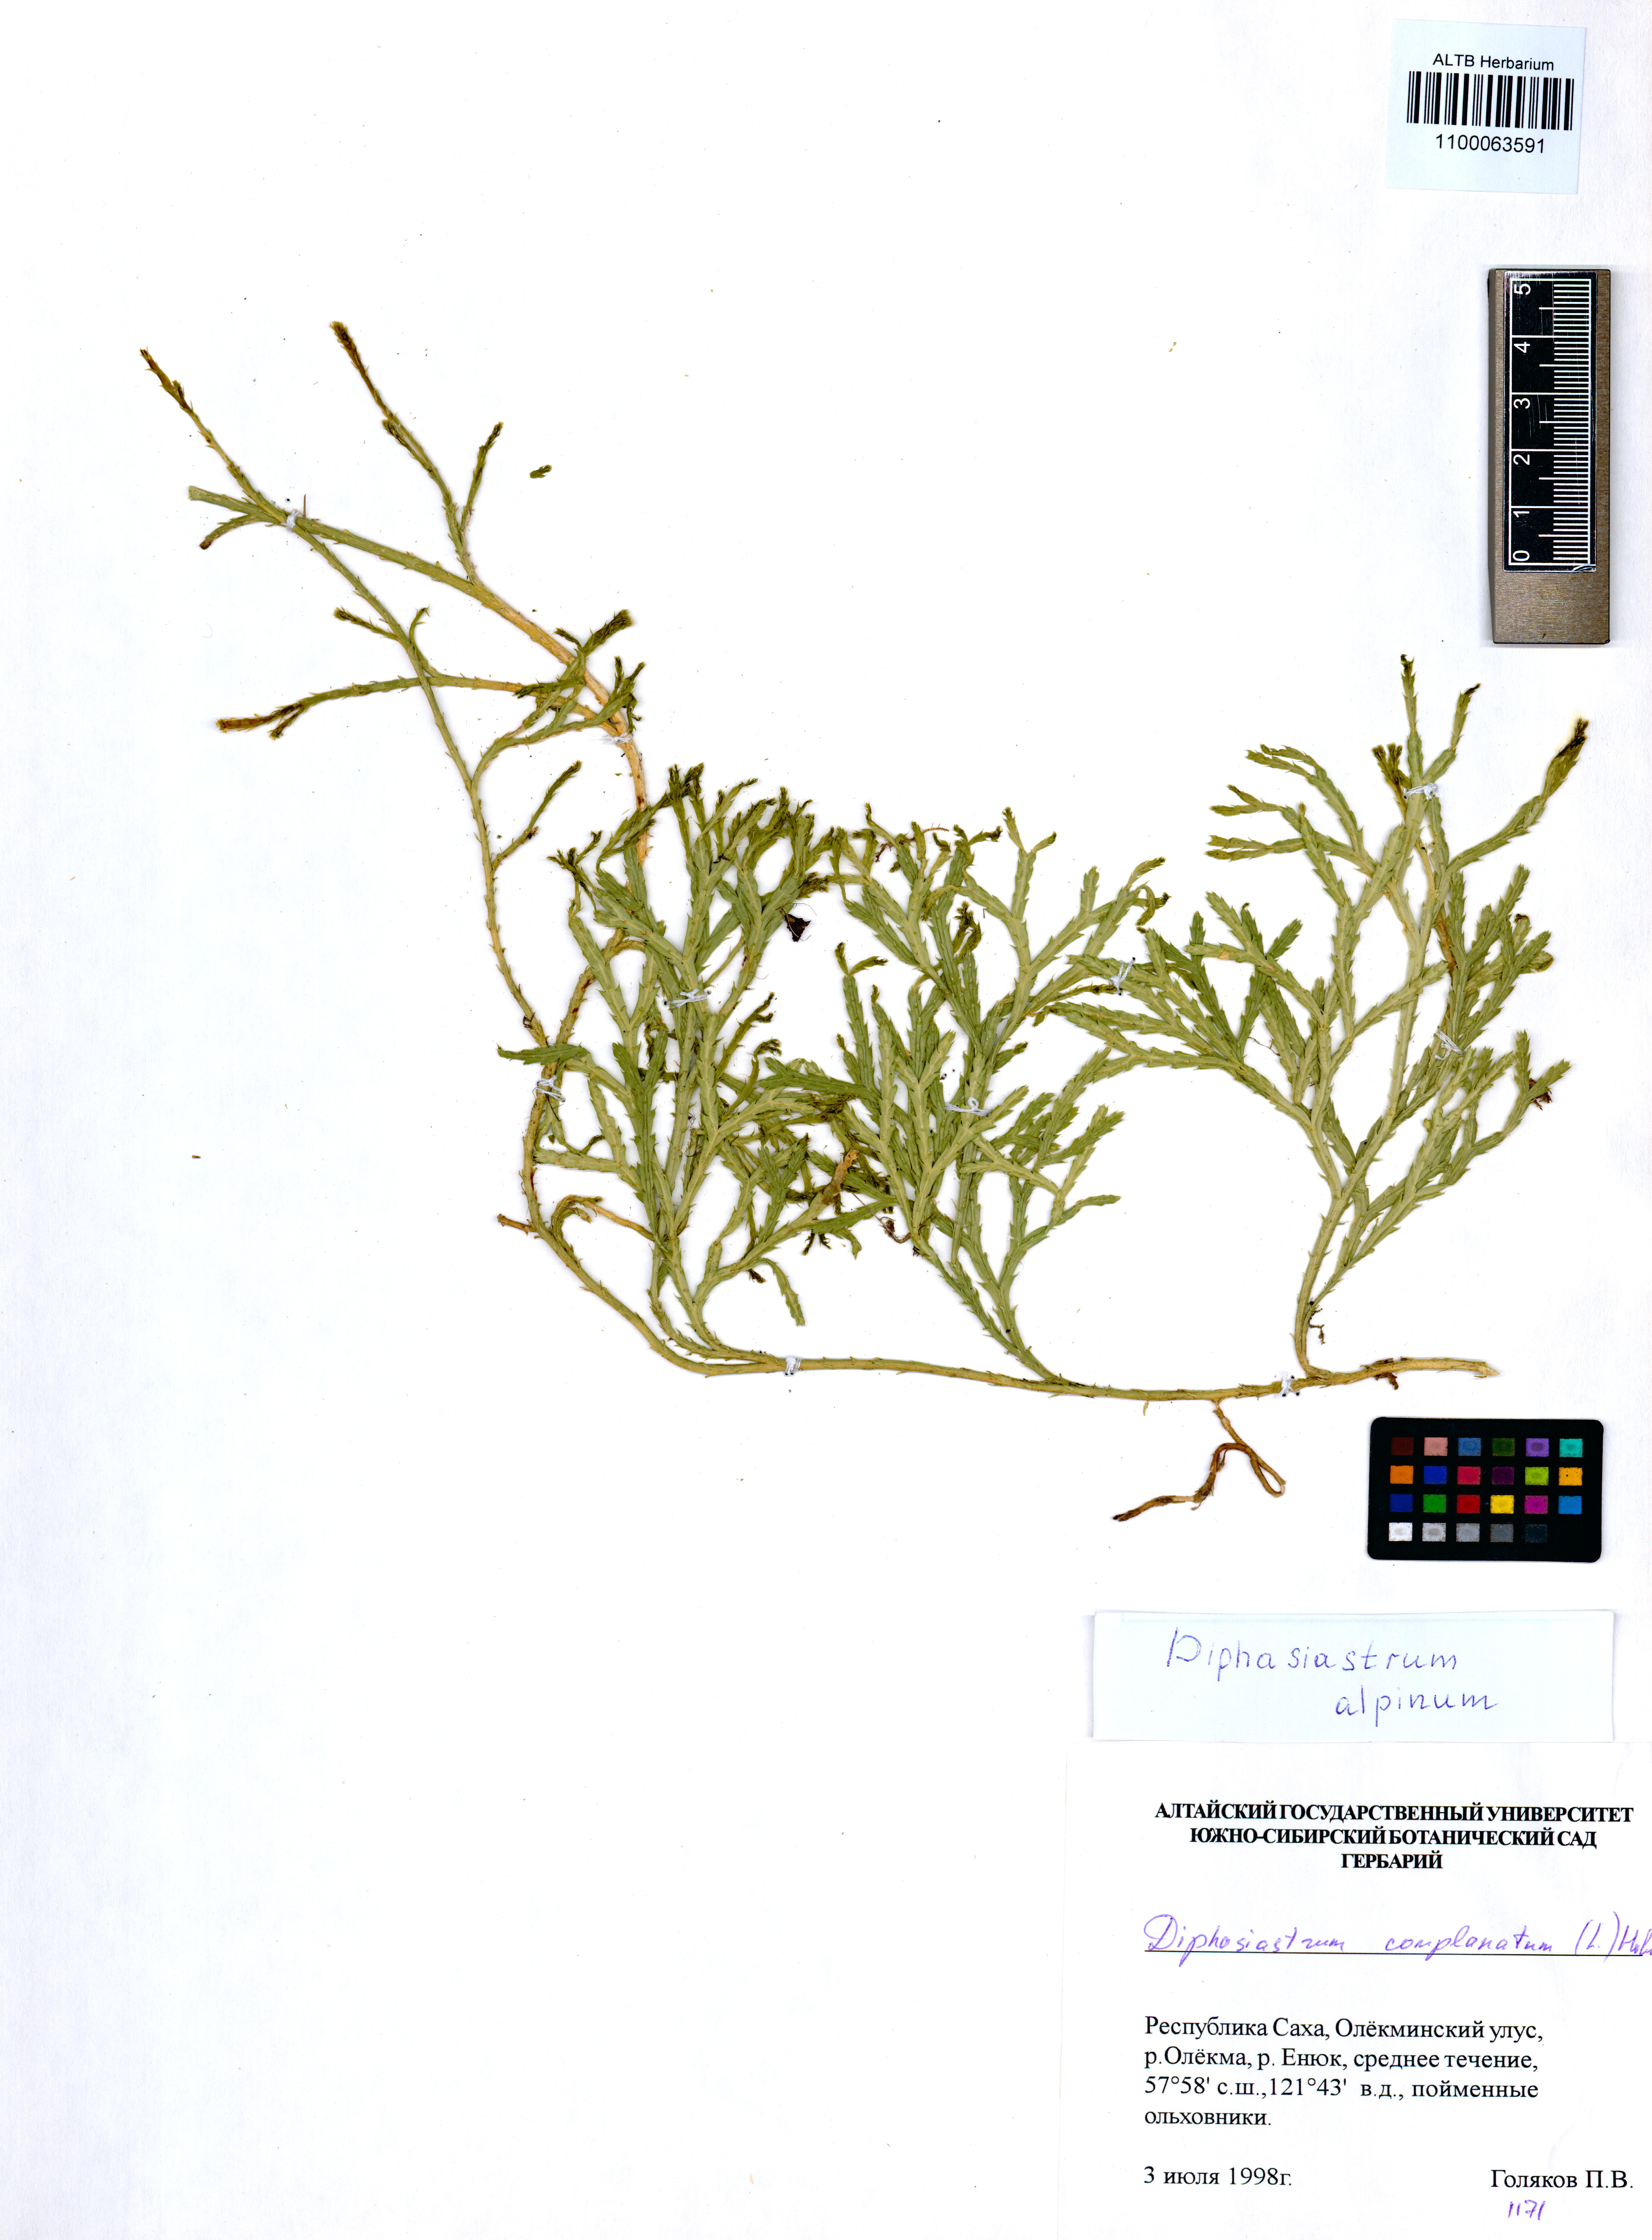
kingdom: Plantae
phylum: Tracheophyta
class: Lycopodiopsida
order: Lycopodiales
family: Lycopodiaceae
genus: Diphasiastrum
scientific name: Diphasiastrum alpinum
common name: Alpine clubmoss
